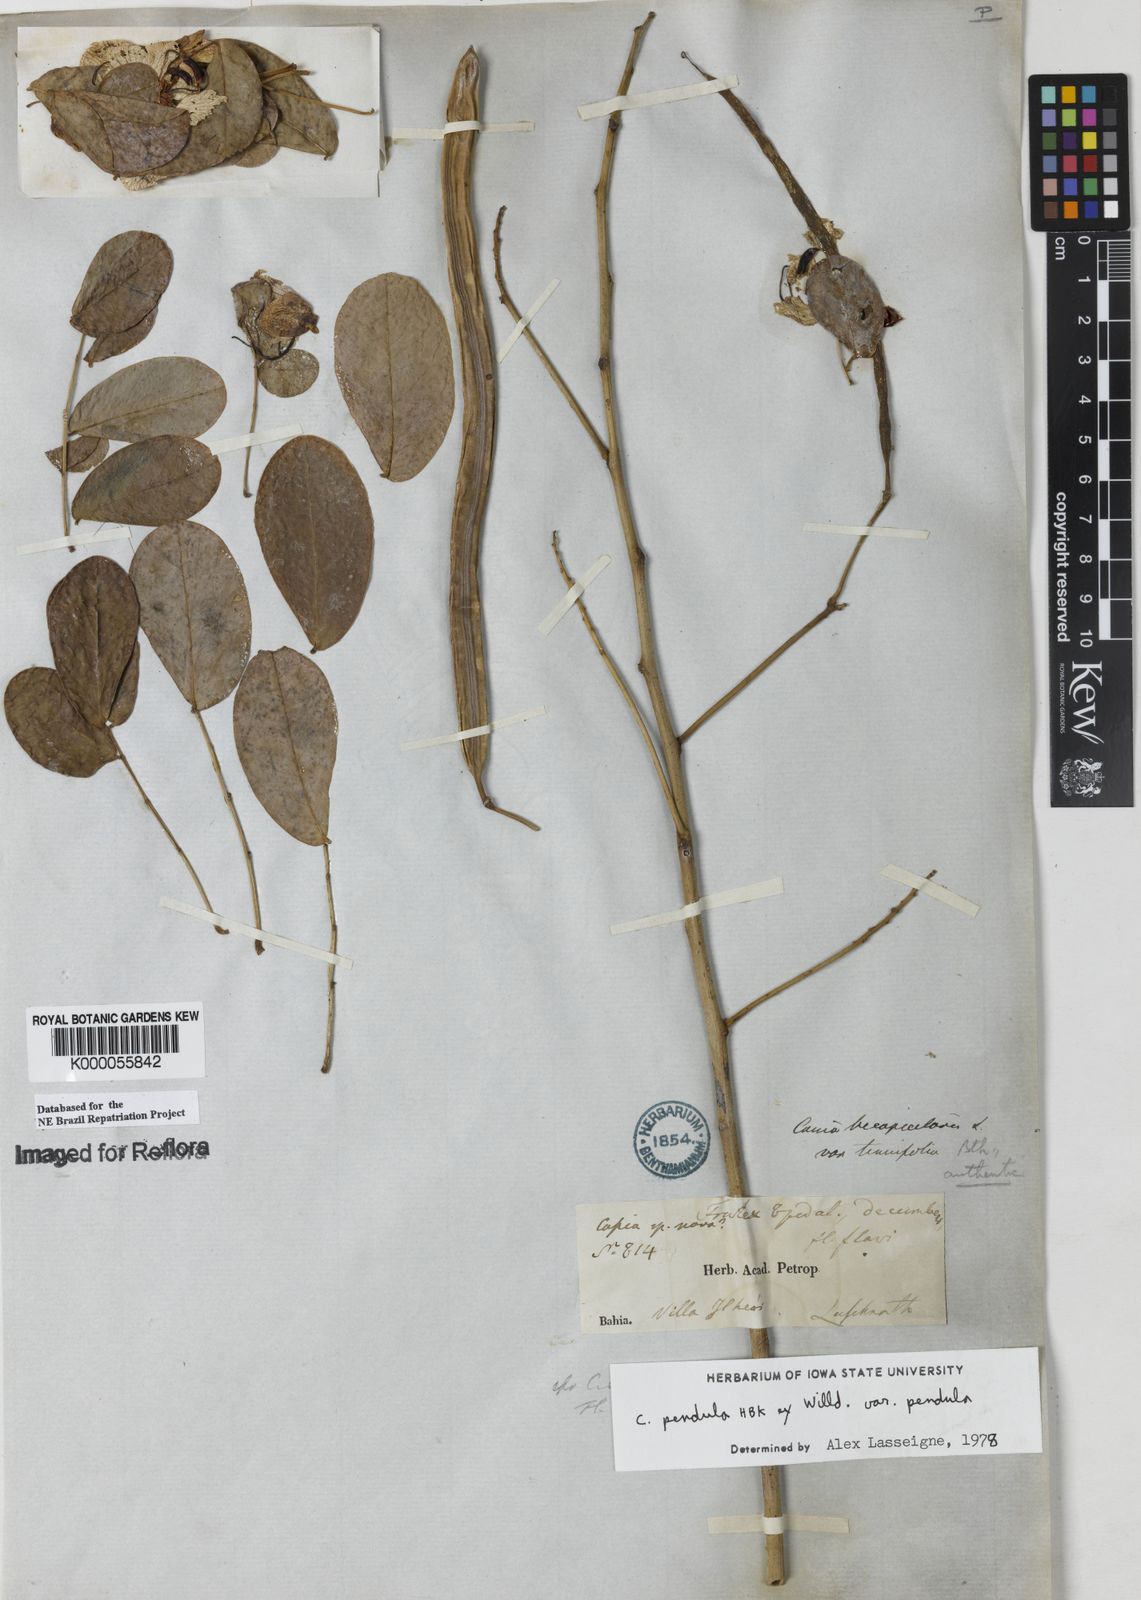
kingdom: Plantae
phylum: Tracheophyta
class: Magnoliopsida
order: Fabales
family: Fabaceae
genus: Senna
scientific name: Senna pendula
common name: Easter cassia
